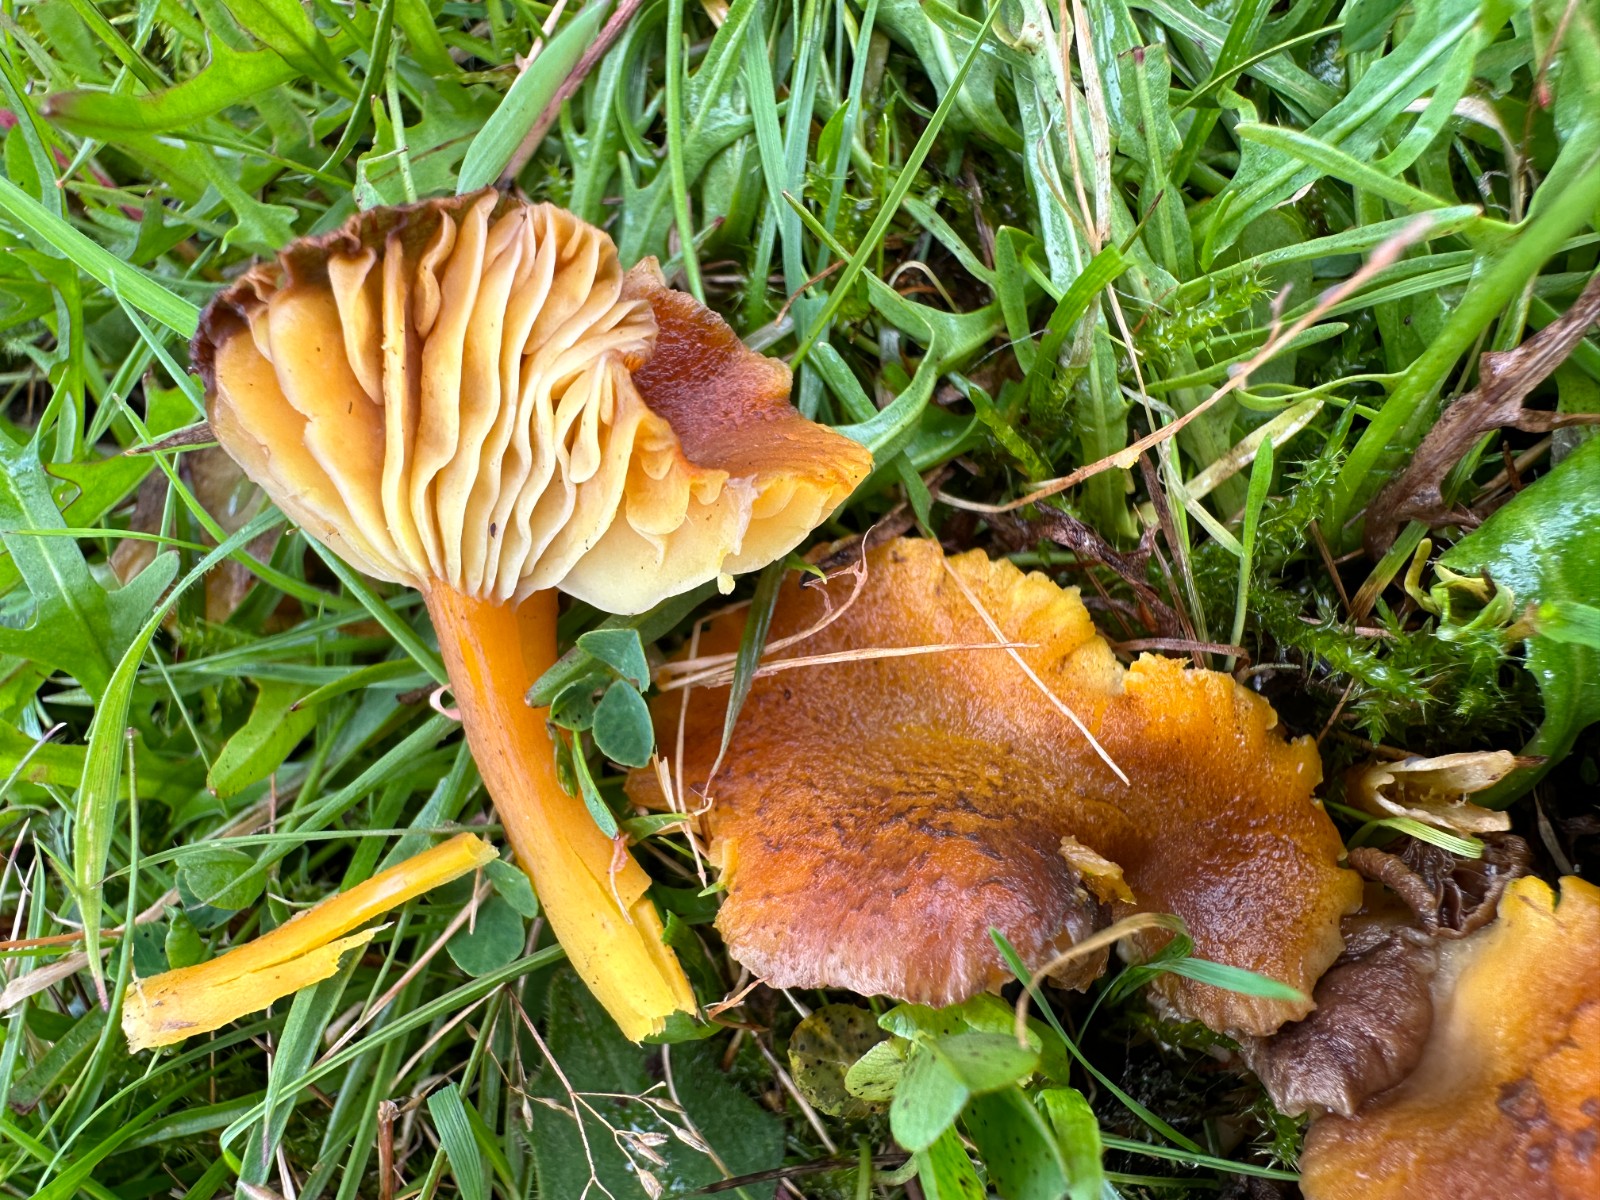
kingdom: Fungi
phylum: Basidiomycota
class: Agaricomycetes
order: Agaricales
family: Hygrophoraceae
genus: Hygrocybe
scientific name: Hygrocybe turunda
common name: sortskællet vokshat
